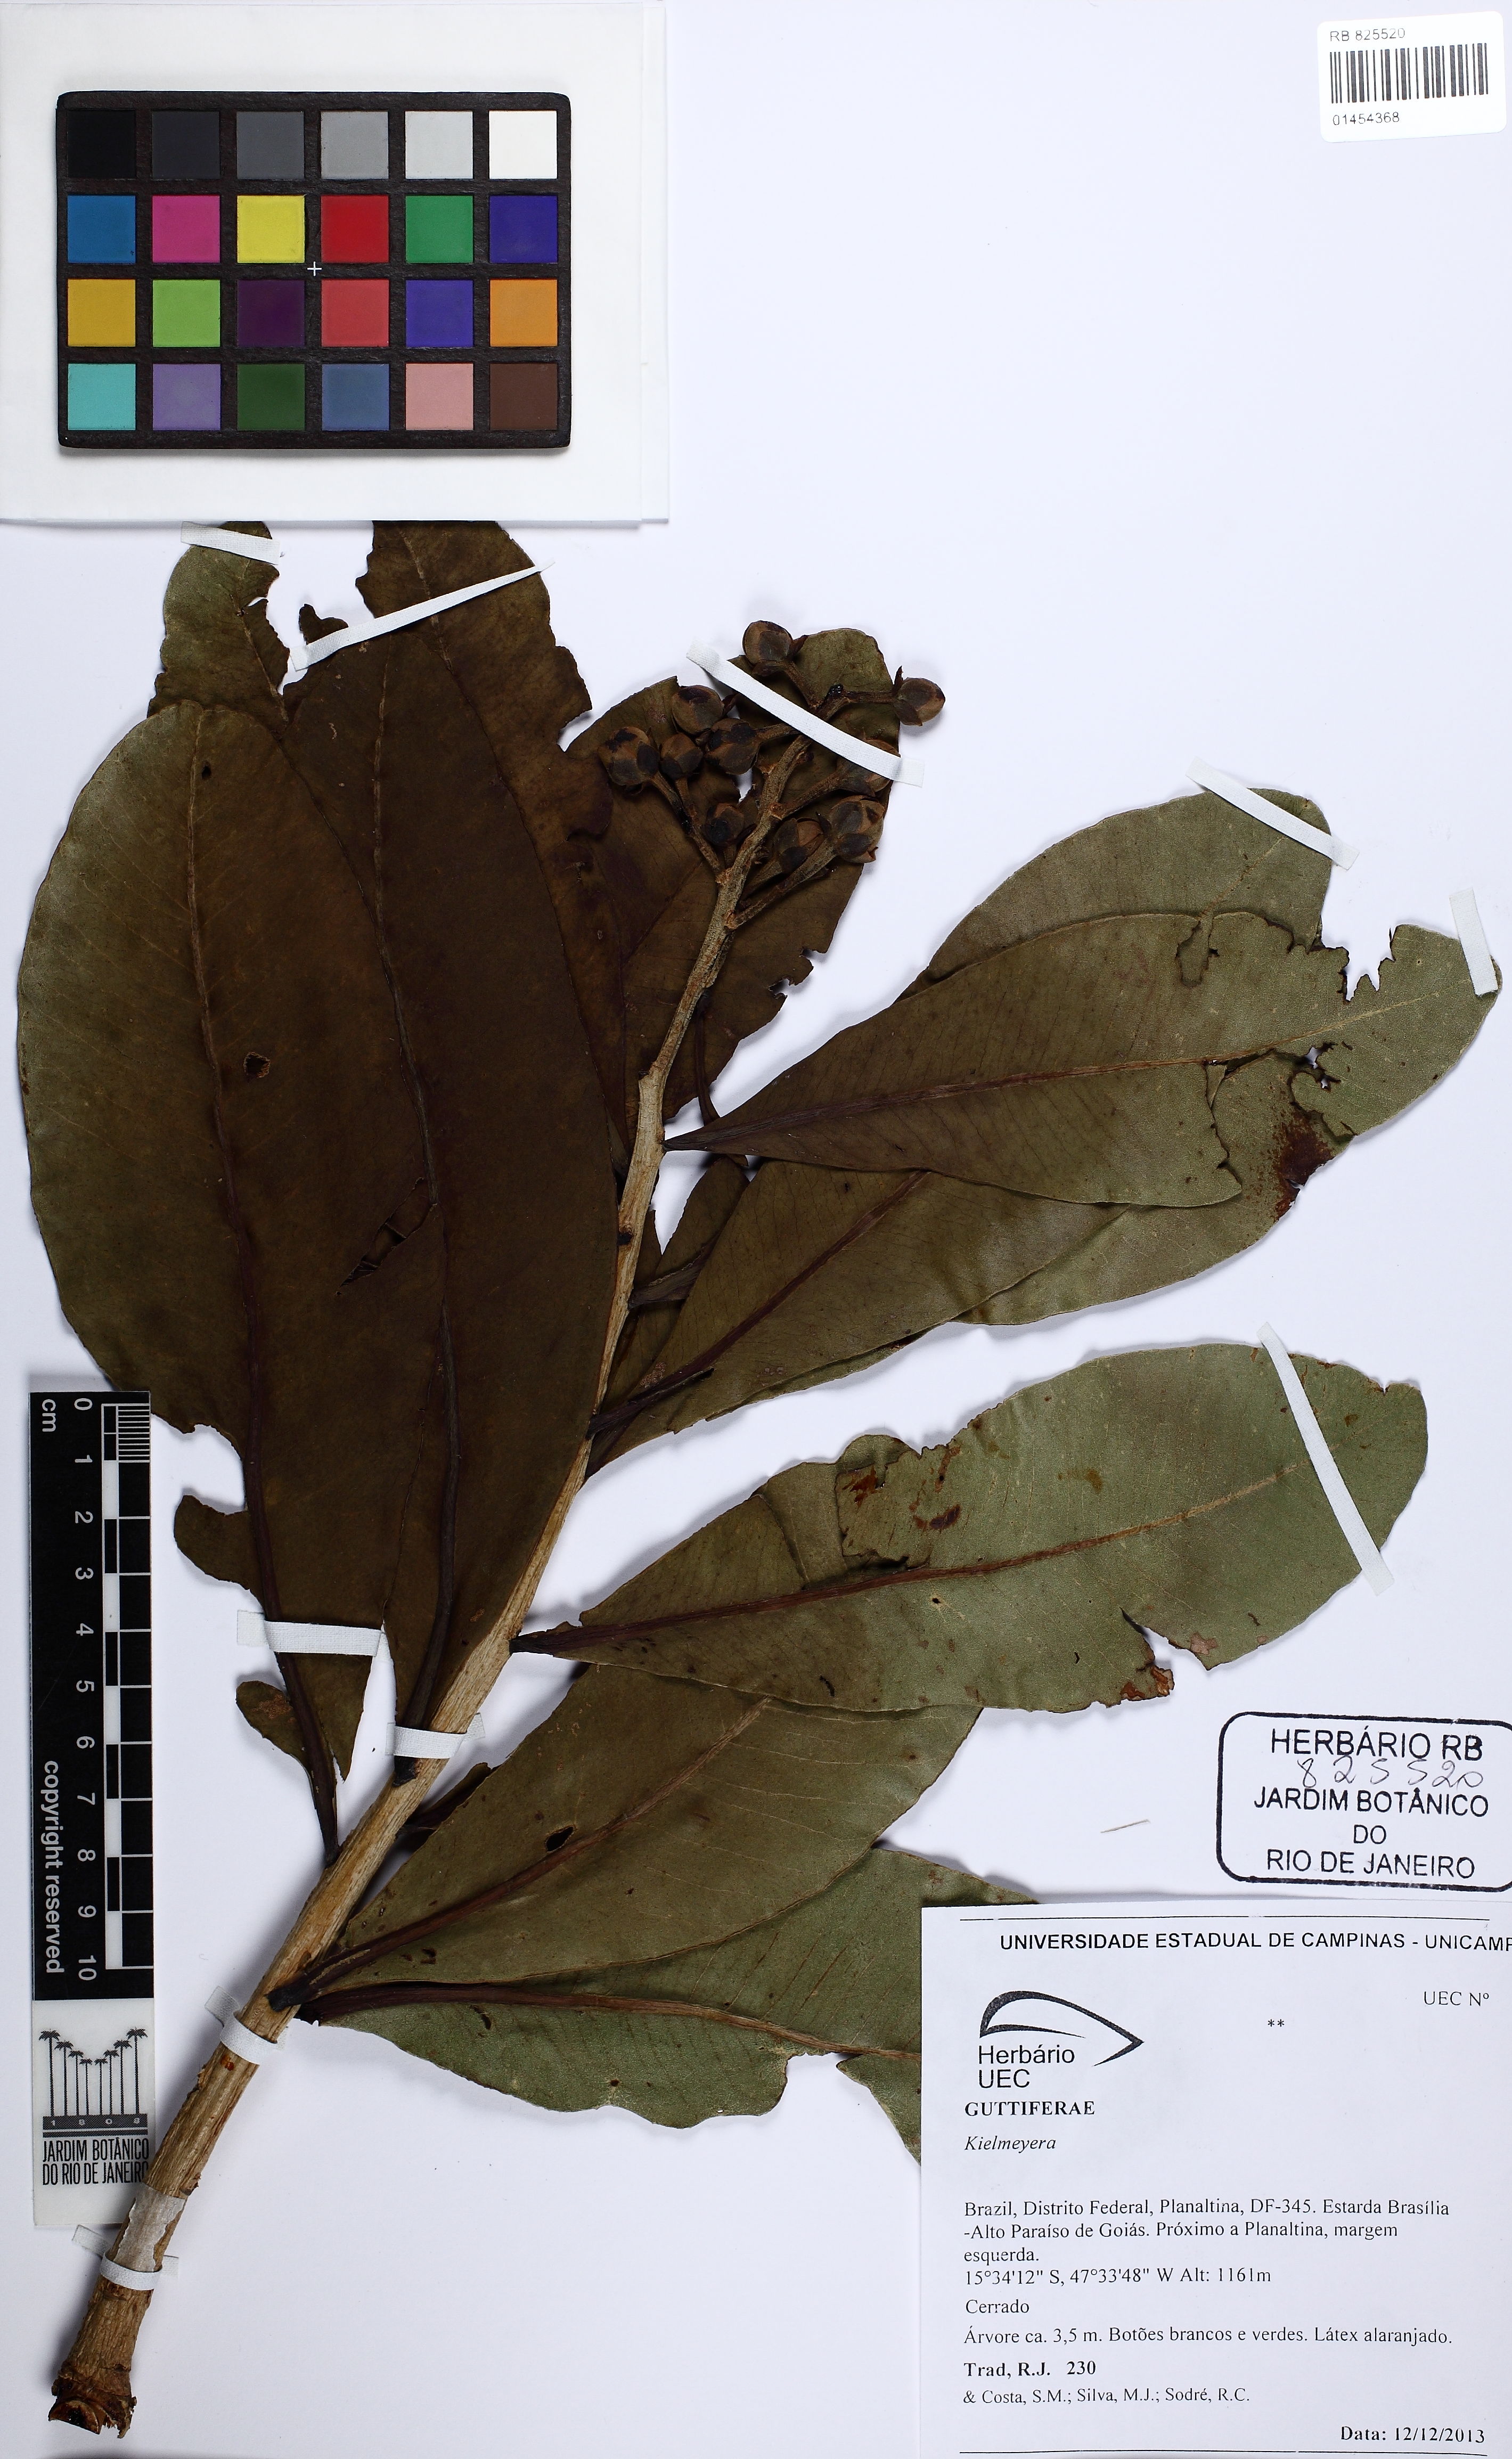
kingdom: Plantae
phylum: Tracheophyta
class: Magnoliopsida
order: Malpighiales
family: Calophyllaceae
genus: Kielmeyera
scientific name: Kielmeyera
